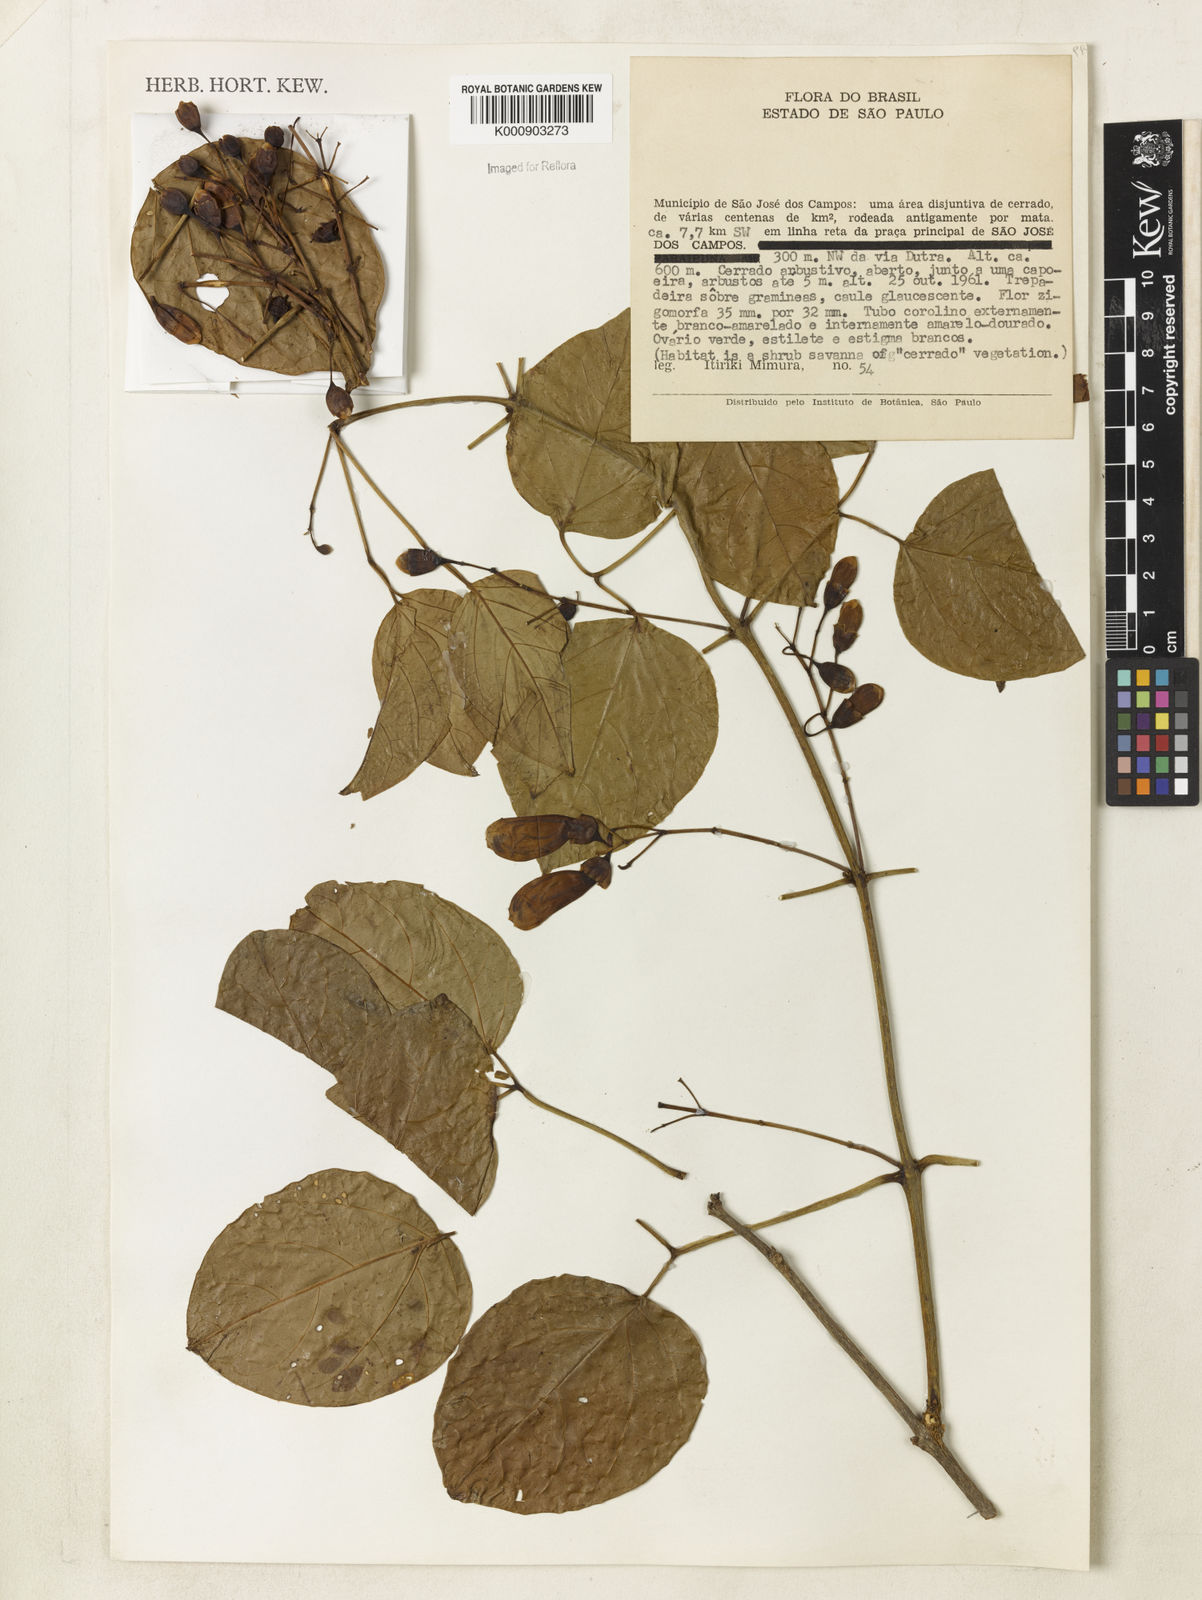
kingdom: Plantae
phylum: Tracheophyta
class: Magnoliopsida
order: Lamiales
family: Bignoniaceae
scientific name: Bignoniaceae
